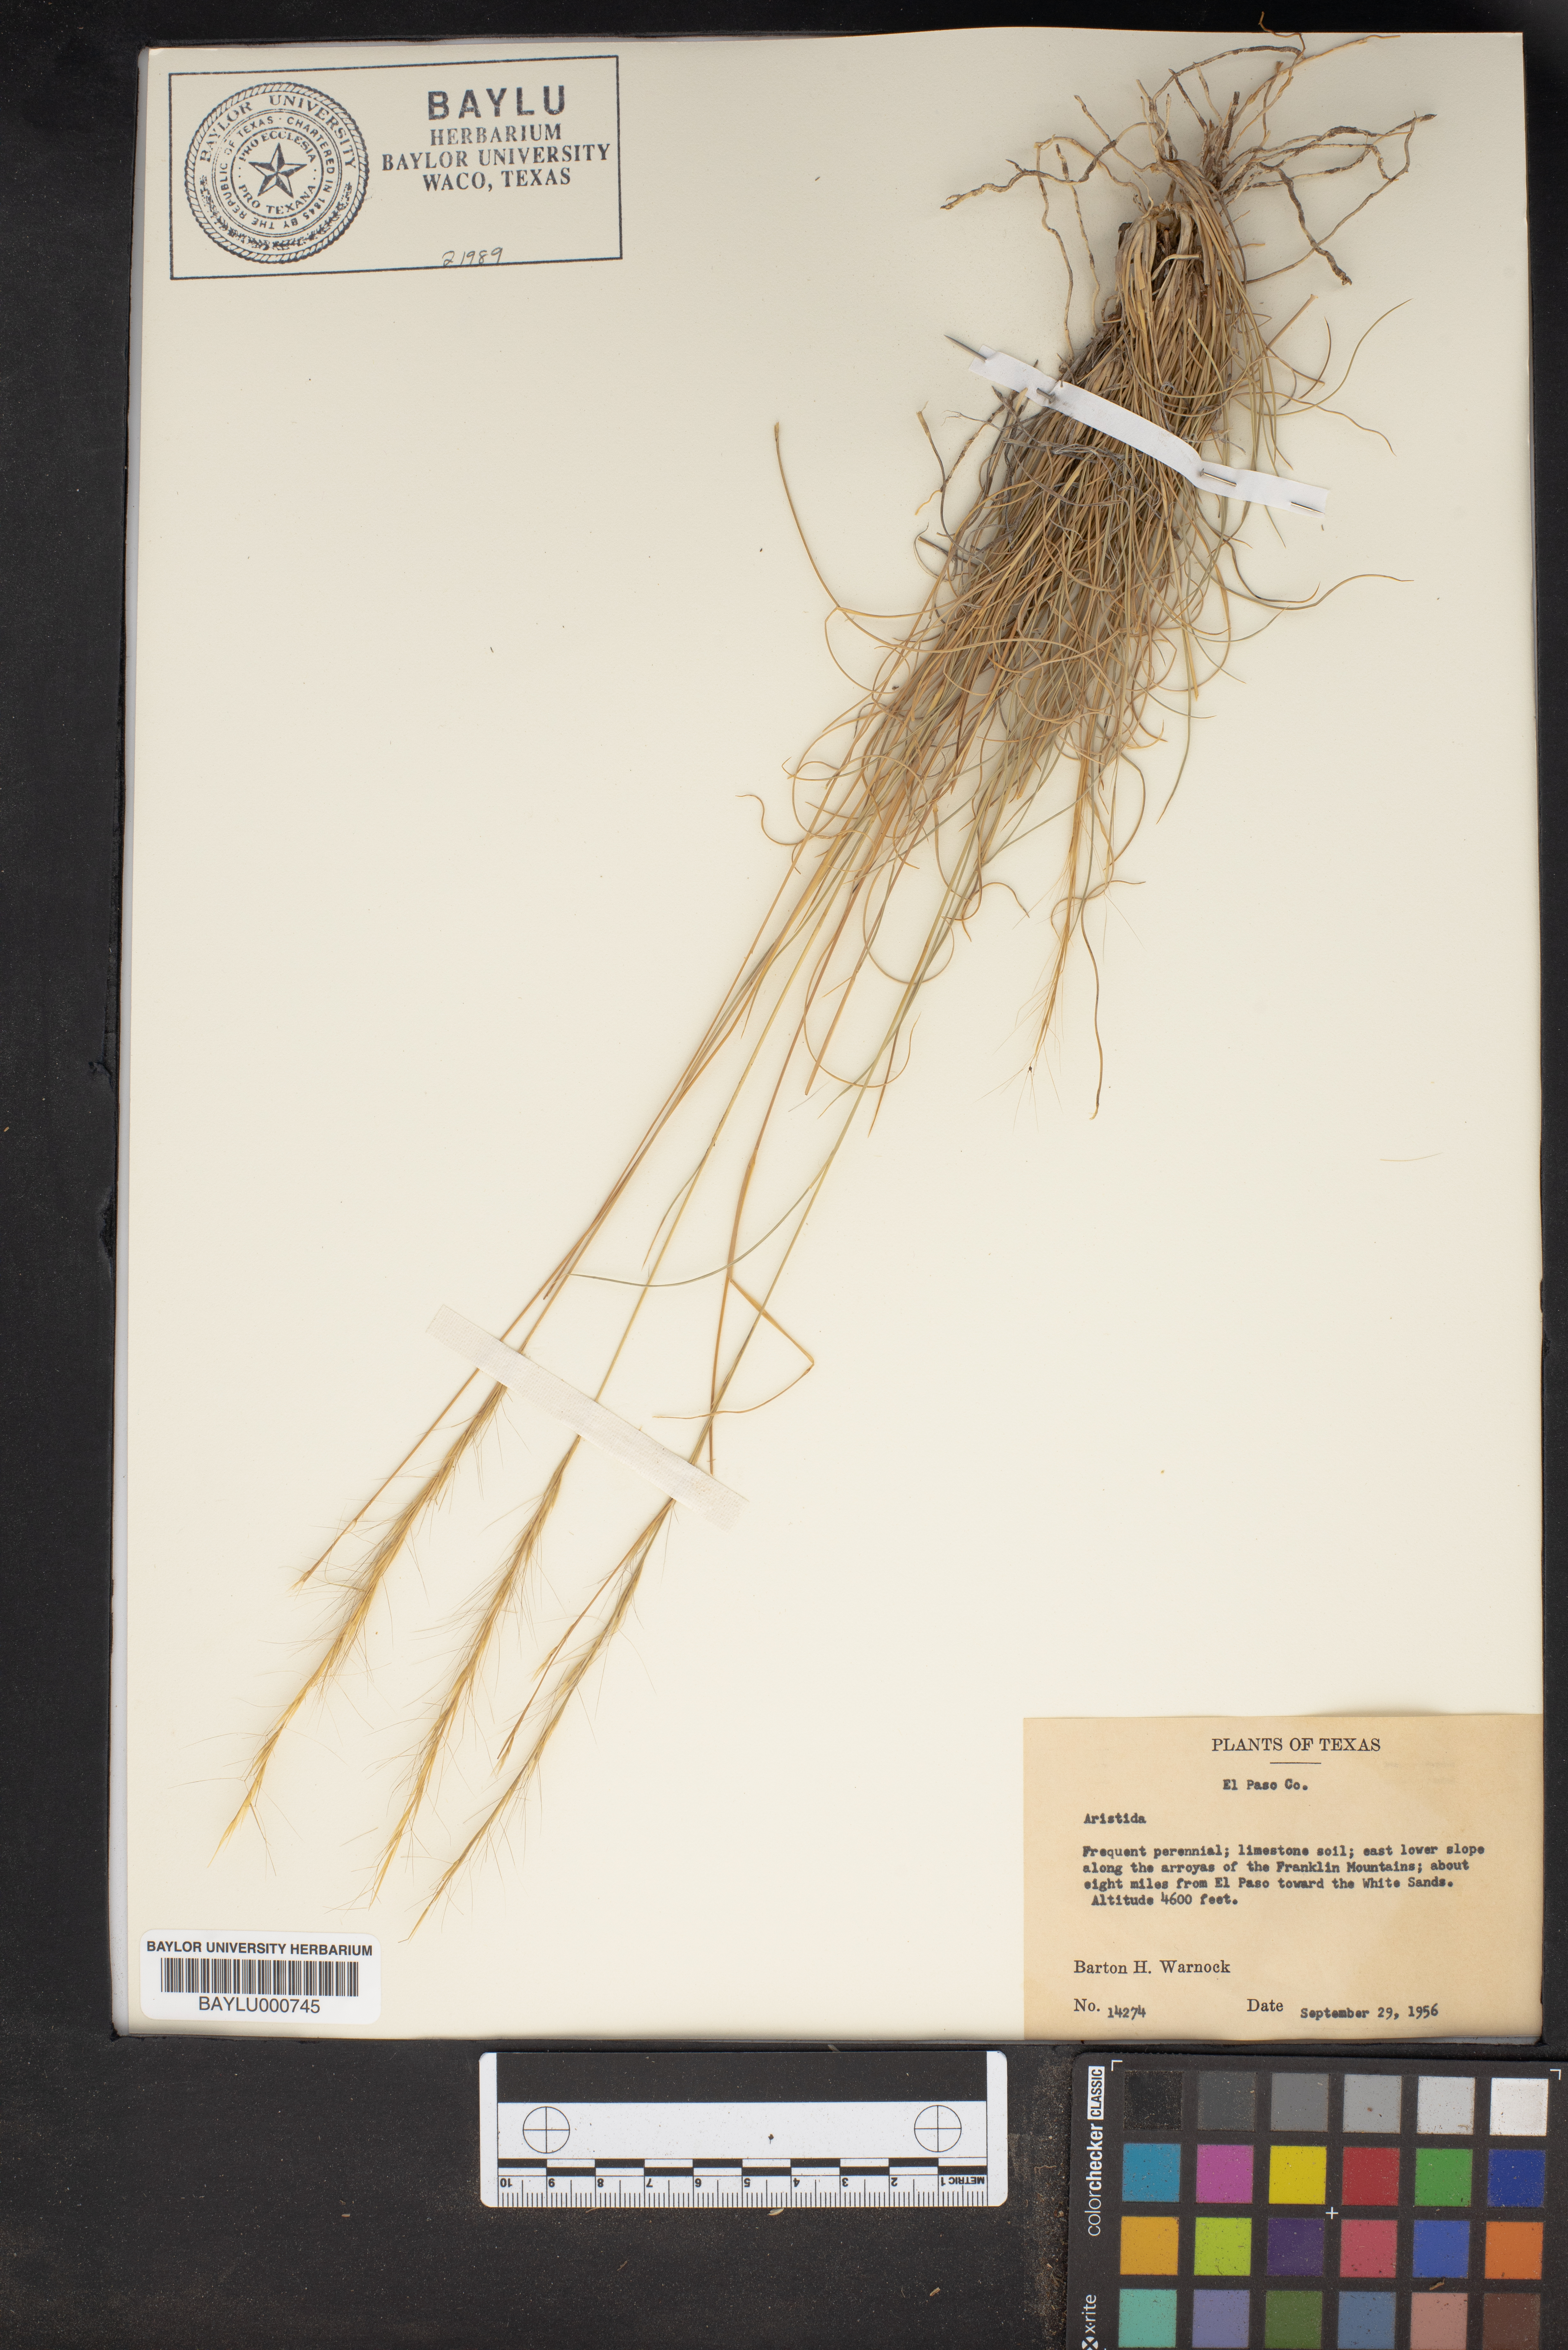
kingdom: Plantae
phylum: Tracheophyta
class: Liliopsida
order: Poales
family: Poaceae
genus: Aristida
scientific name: Aristida
